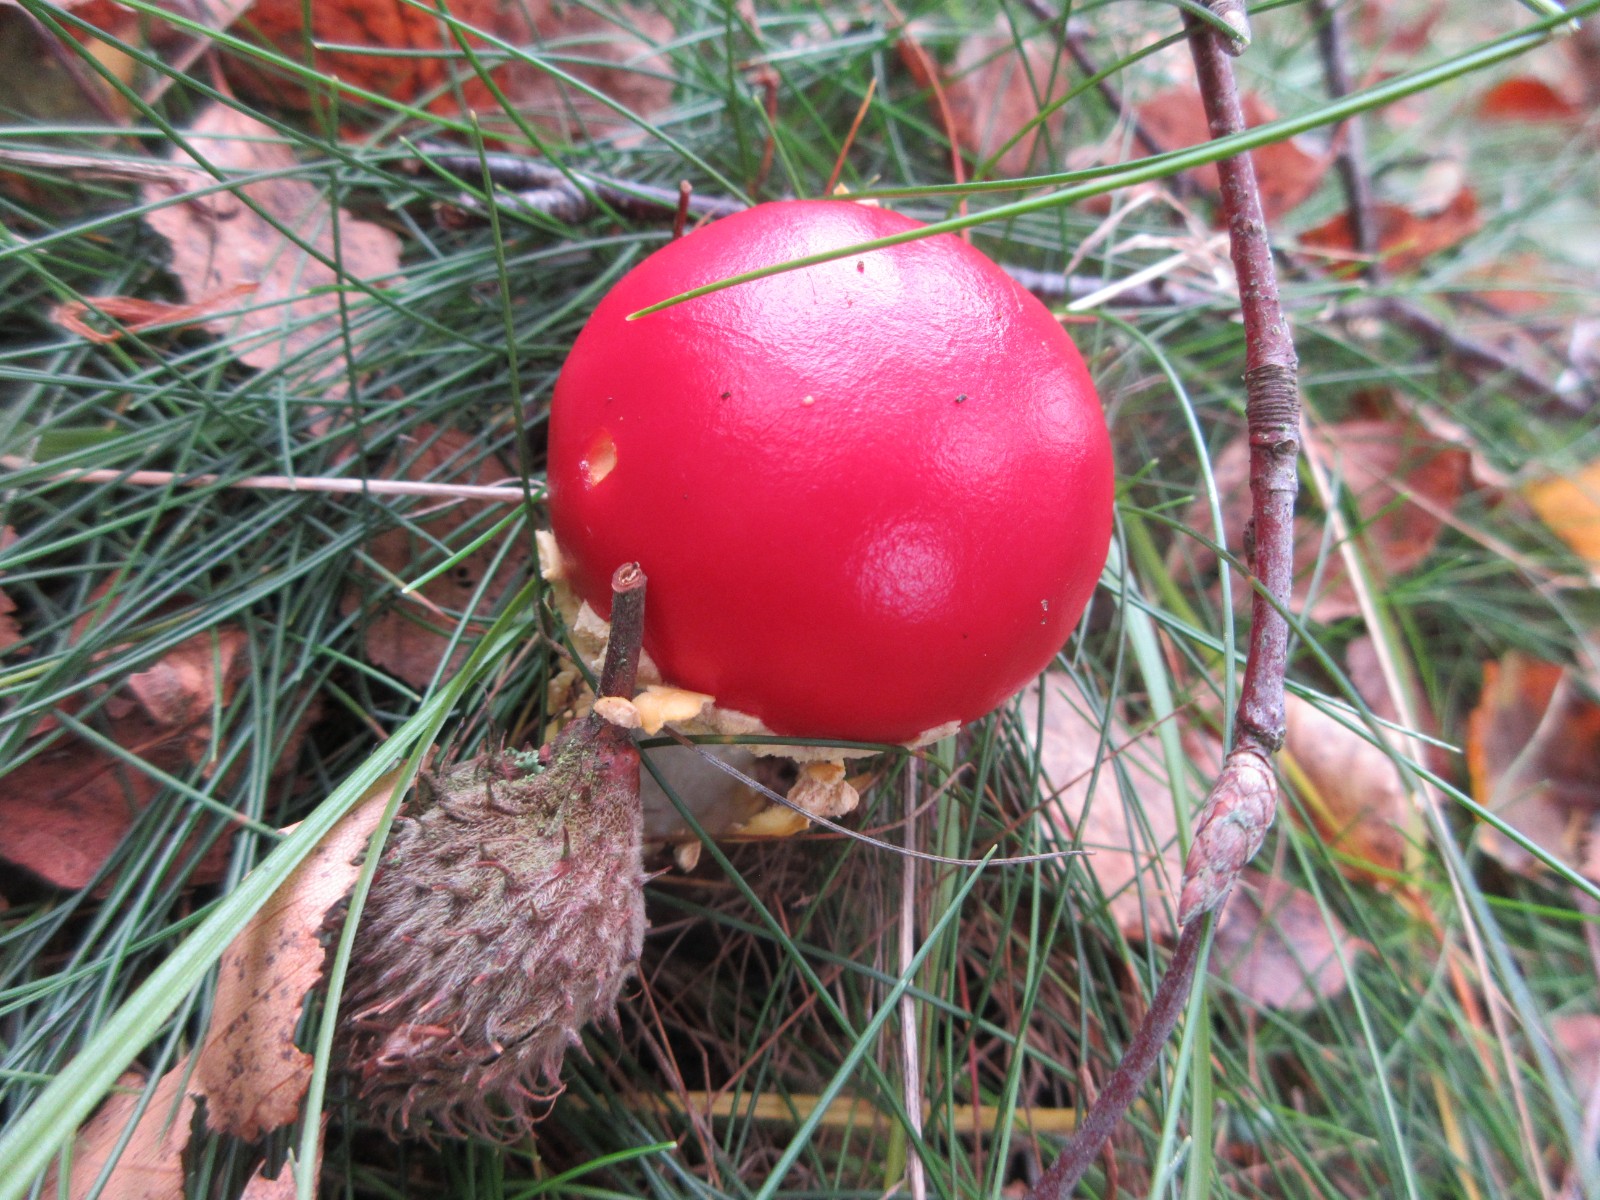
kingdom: Fungi
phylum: Basidiomycota
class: Agaricomycetes
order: Agaricales
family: Amanitaceae
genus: Amanita
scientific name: Amanita muscaria
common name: rød fluesvamp
